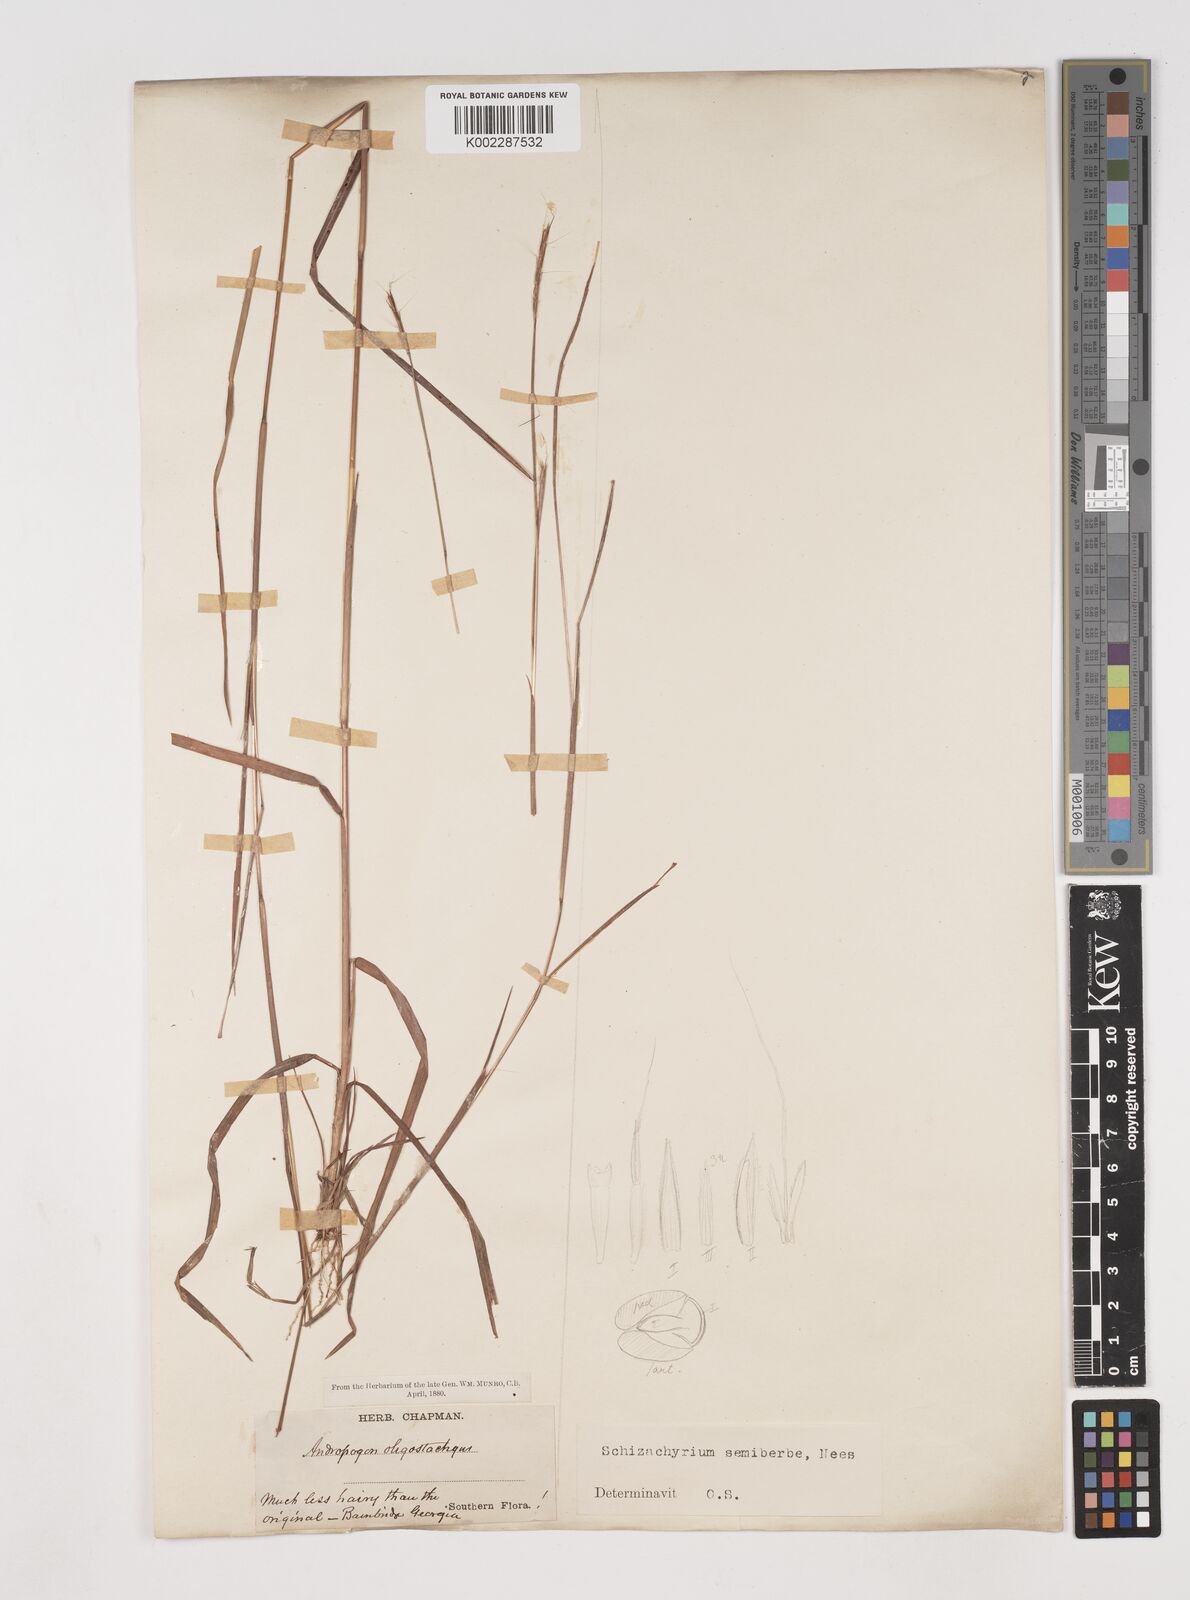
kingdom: Plantae
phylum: Tracheophyta
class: Liliopsida
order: Poales
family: Poaceae
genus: Schizachyrium
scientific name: Schizachyrium sanguineum
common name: Crimson bluestem
